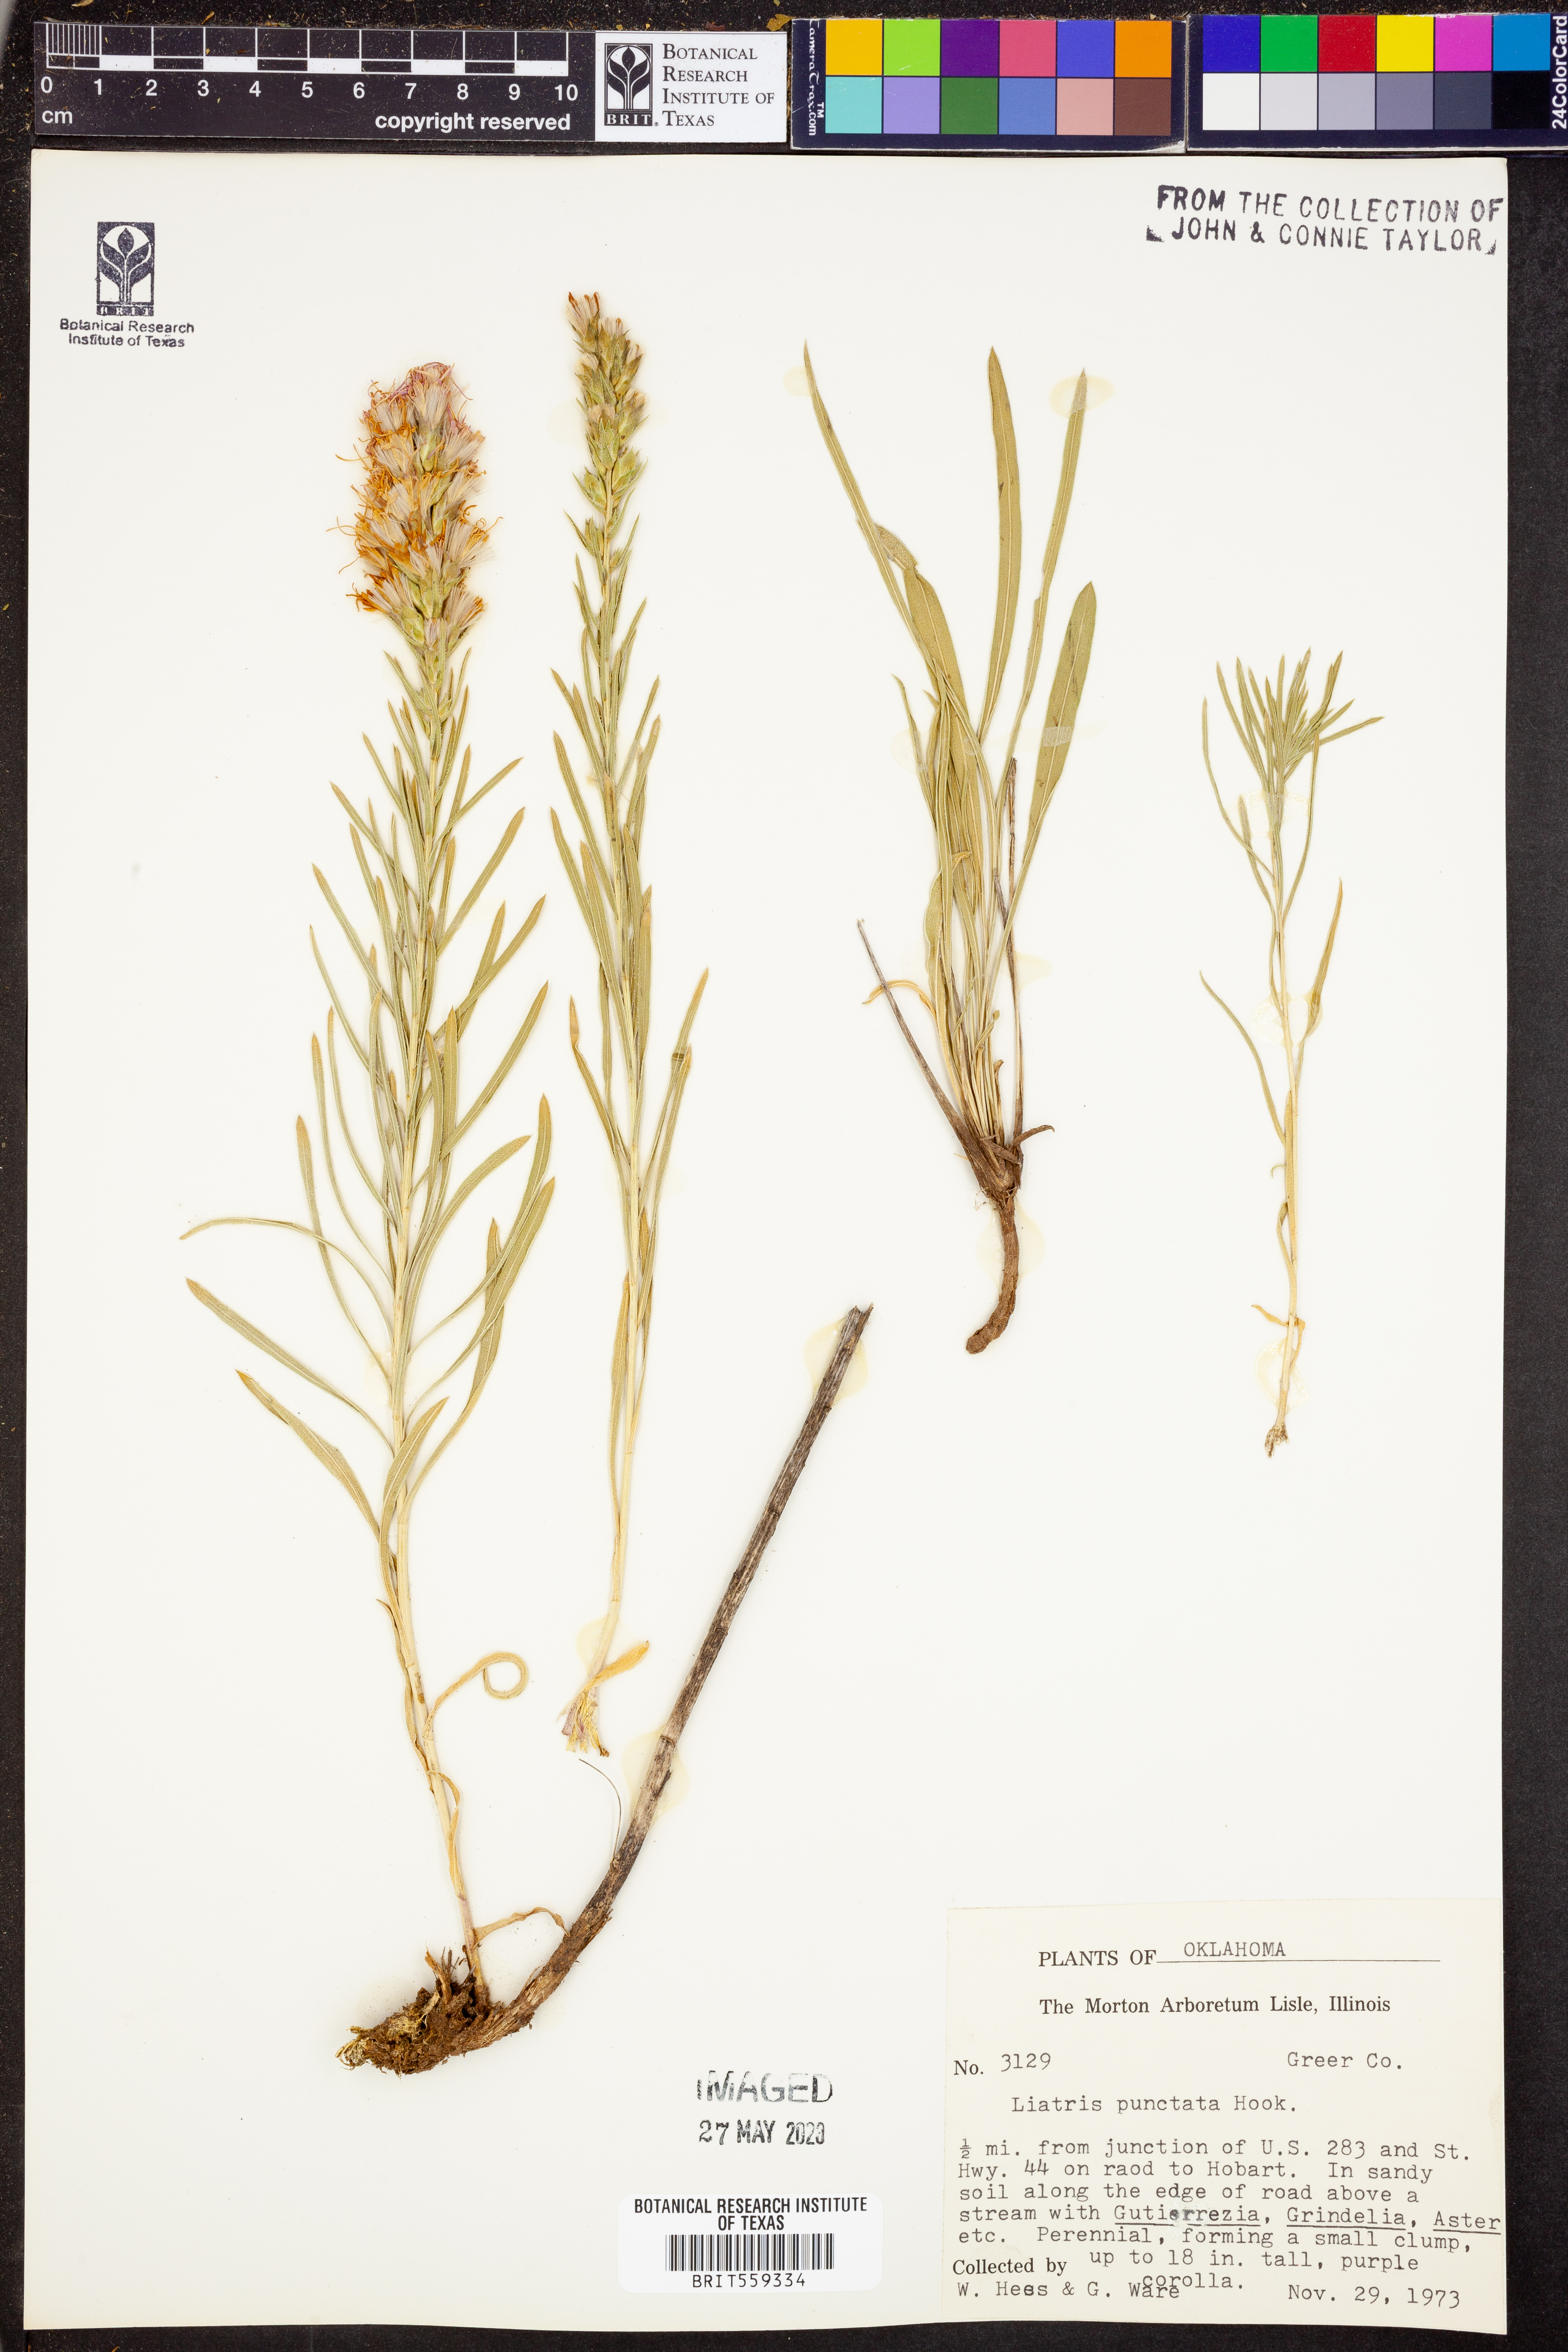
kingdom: Plantae
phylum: Tracheophyta
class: Magnoliopsida
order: Asterales
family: Asteraceae
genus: Liatris
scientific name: Liatris punctata
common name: Dotted gayfeather
